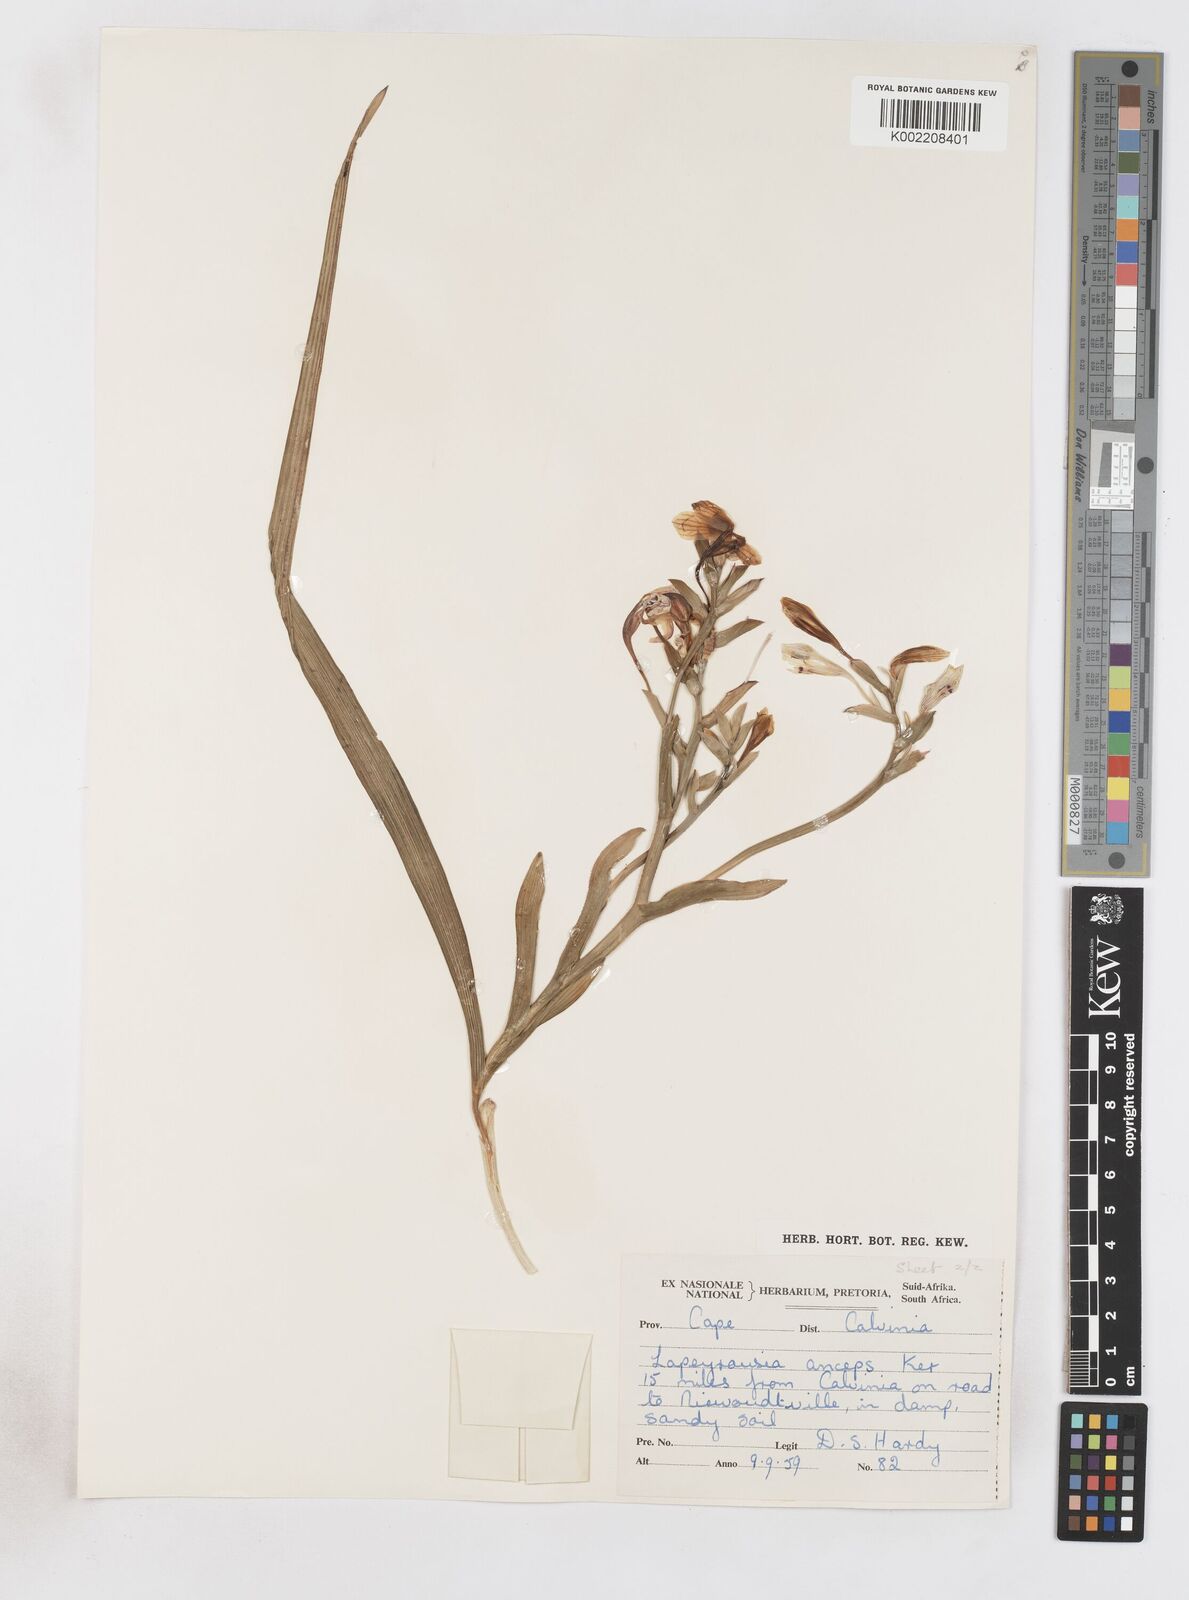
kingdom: Plantae
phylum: Tracheophyta
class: Liliopsida
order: Asparagales
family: Iridaceae
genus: Lapeirousia
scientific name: Lapeirousia fabricii
